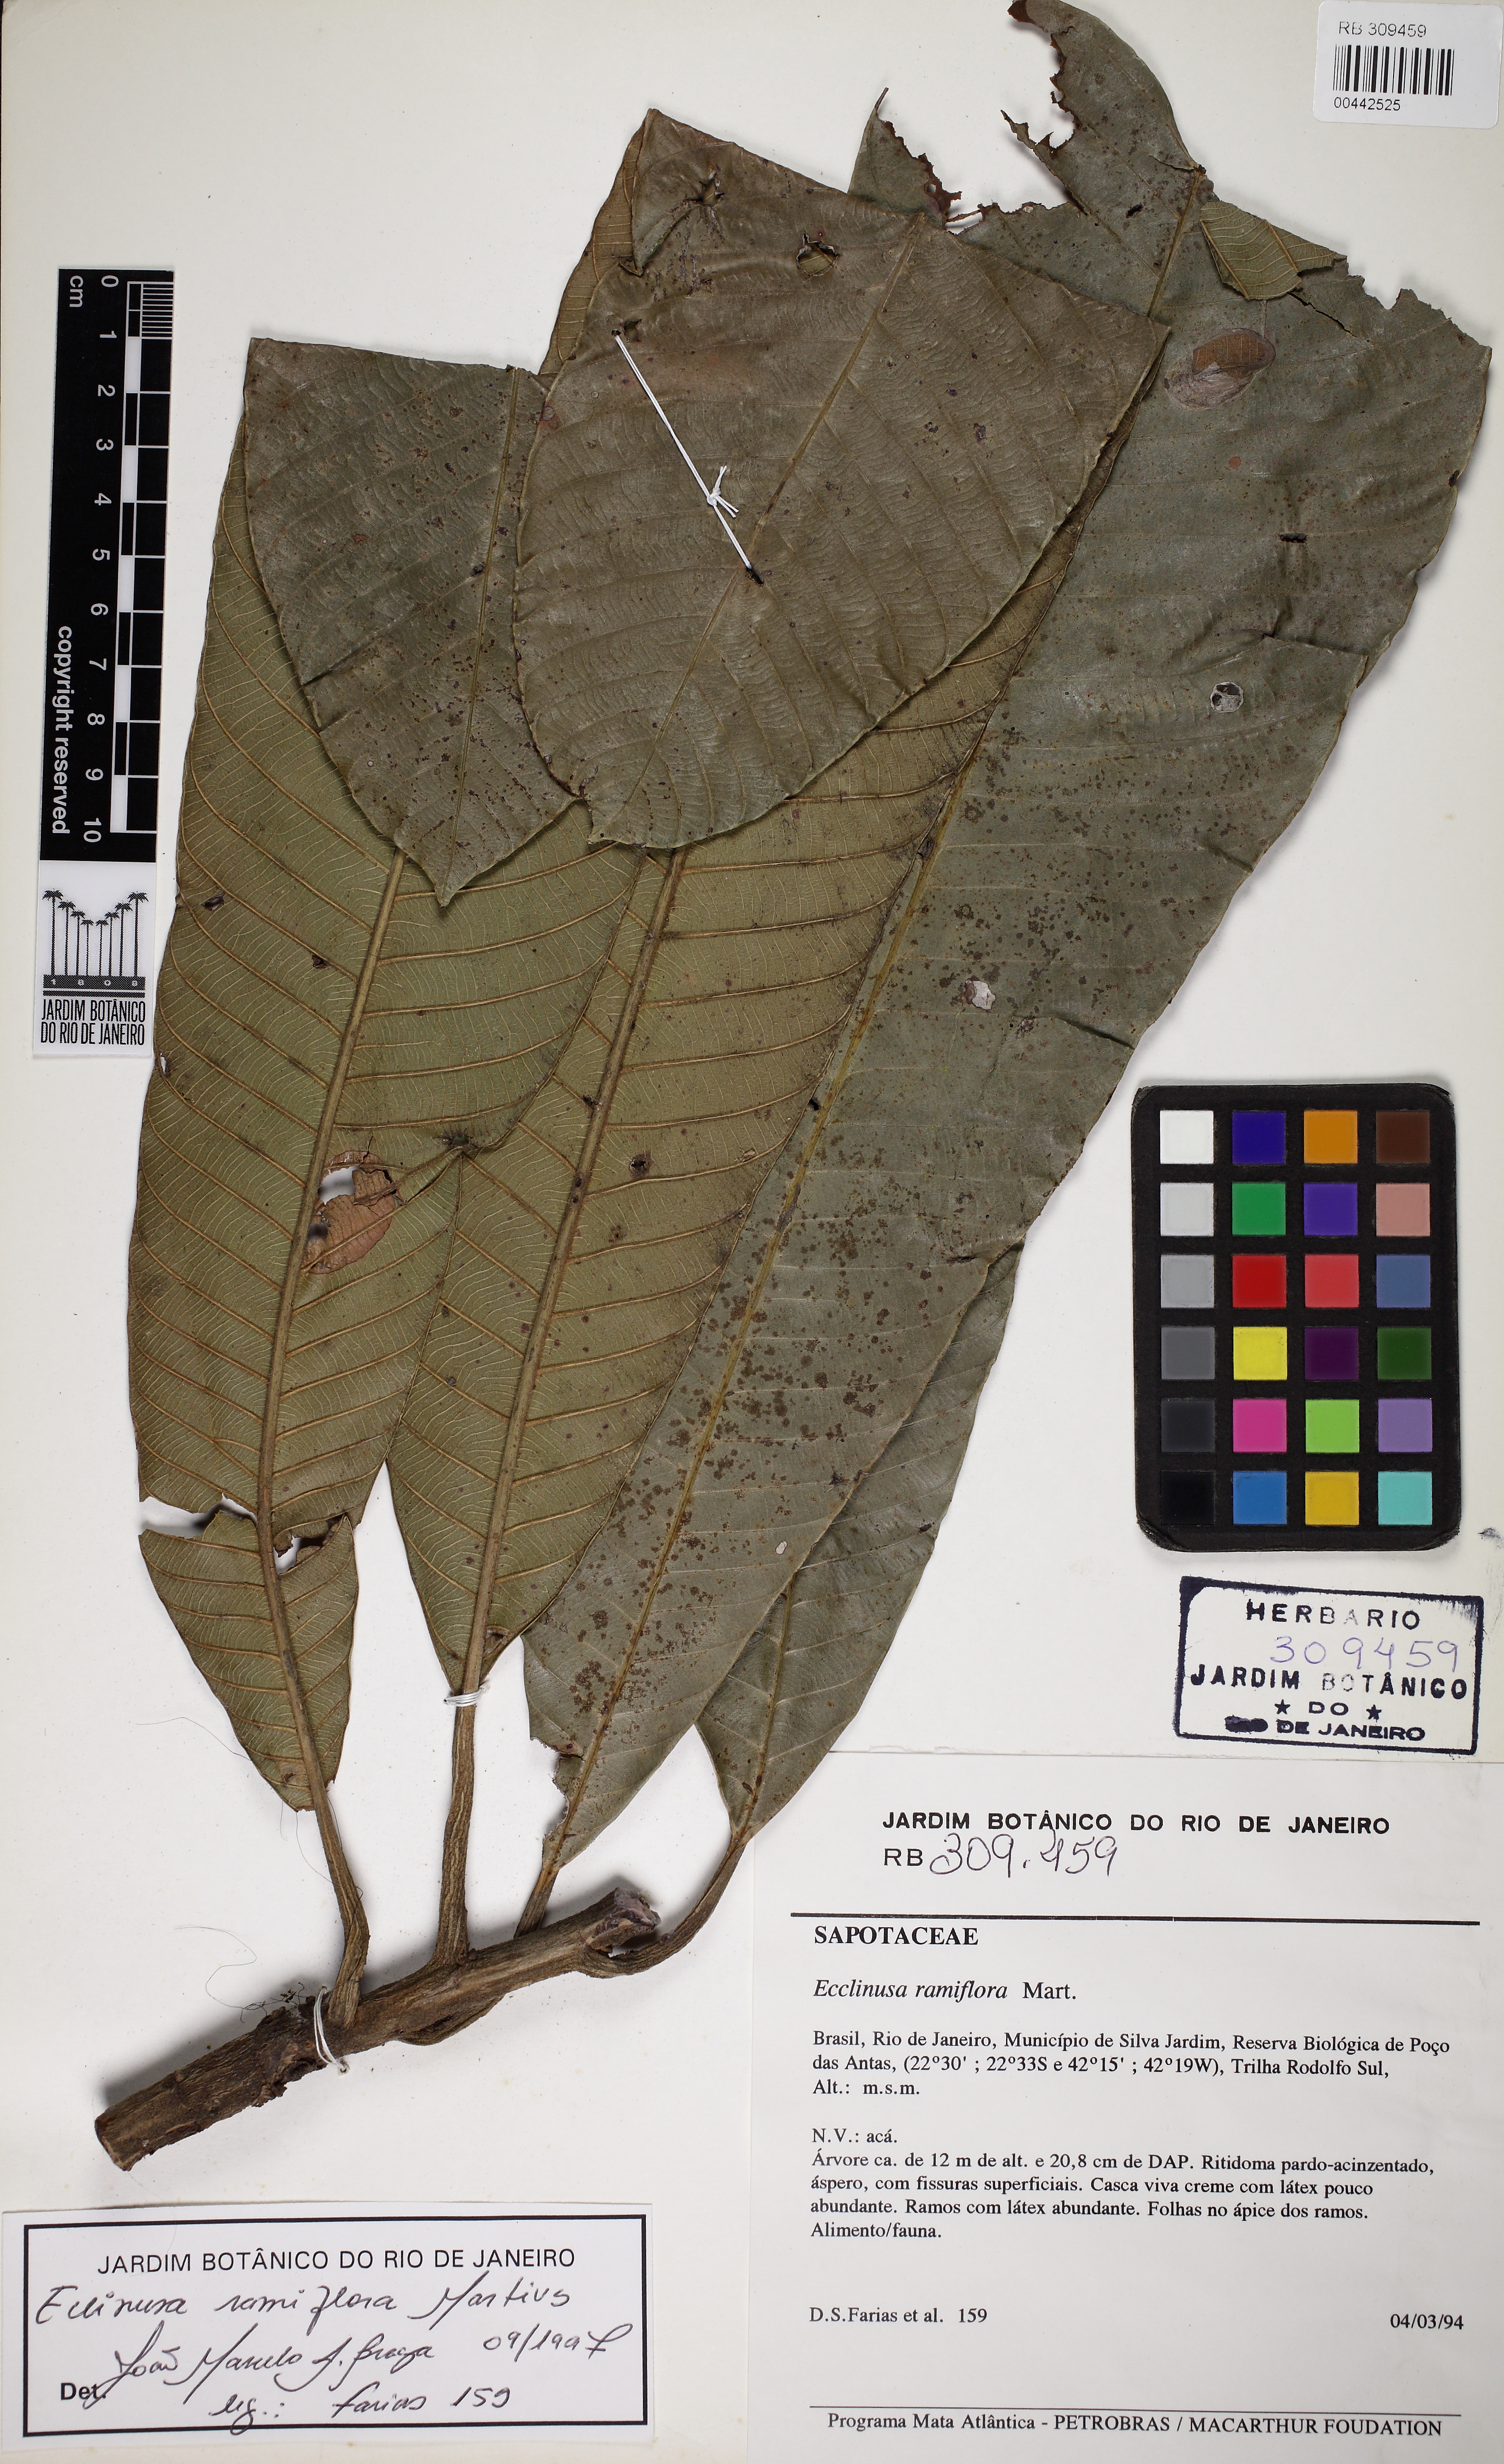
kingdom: Plantae
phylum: Tracheophyta
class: Magnoliopsida
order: Ericales
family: Sapotaceae
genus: Ecclinusa
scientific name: Ecclinusa ramiflora
